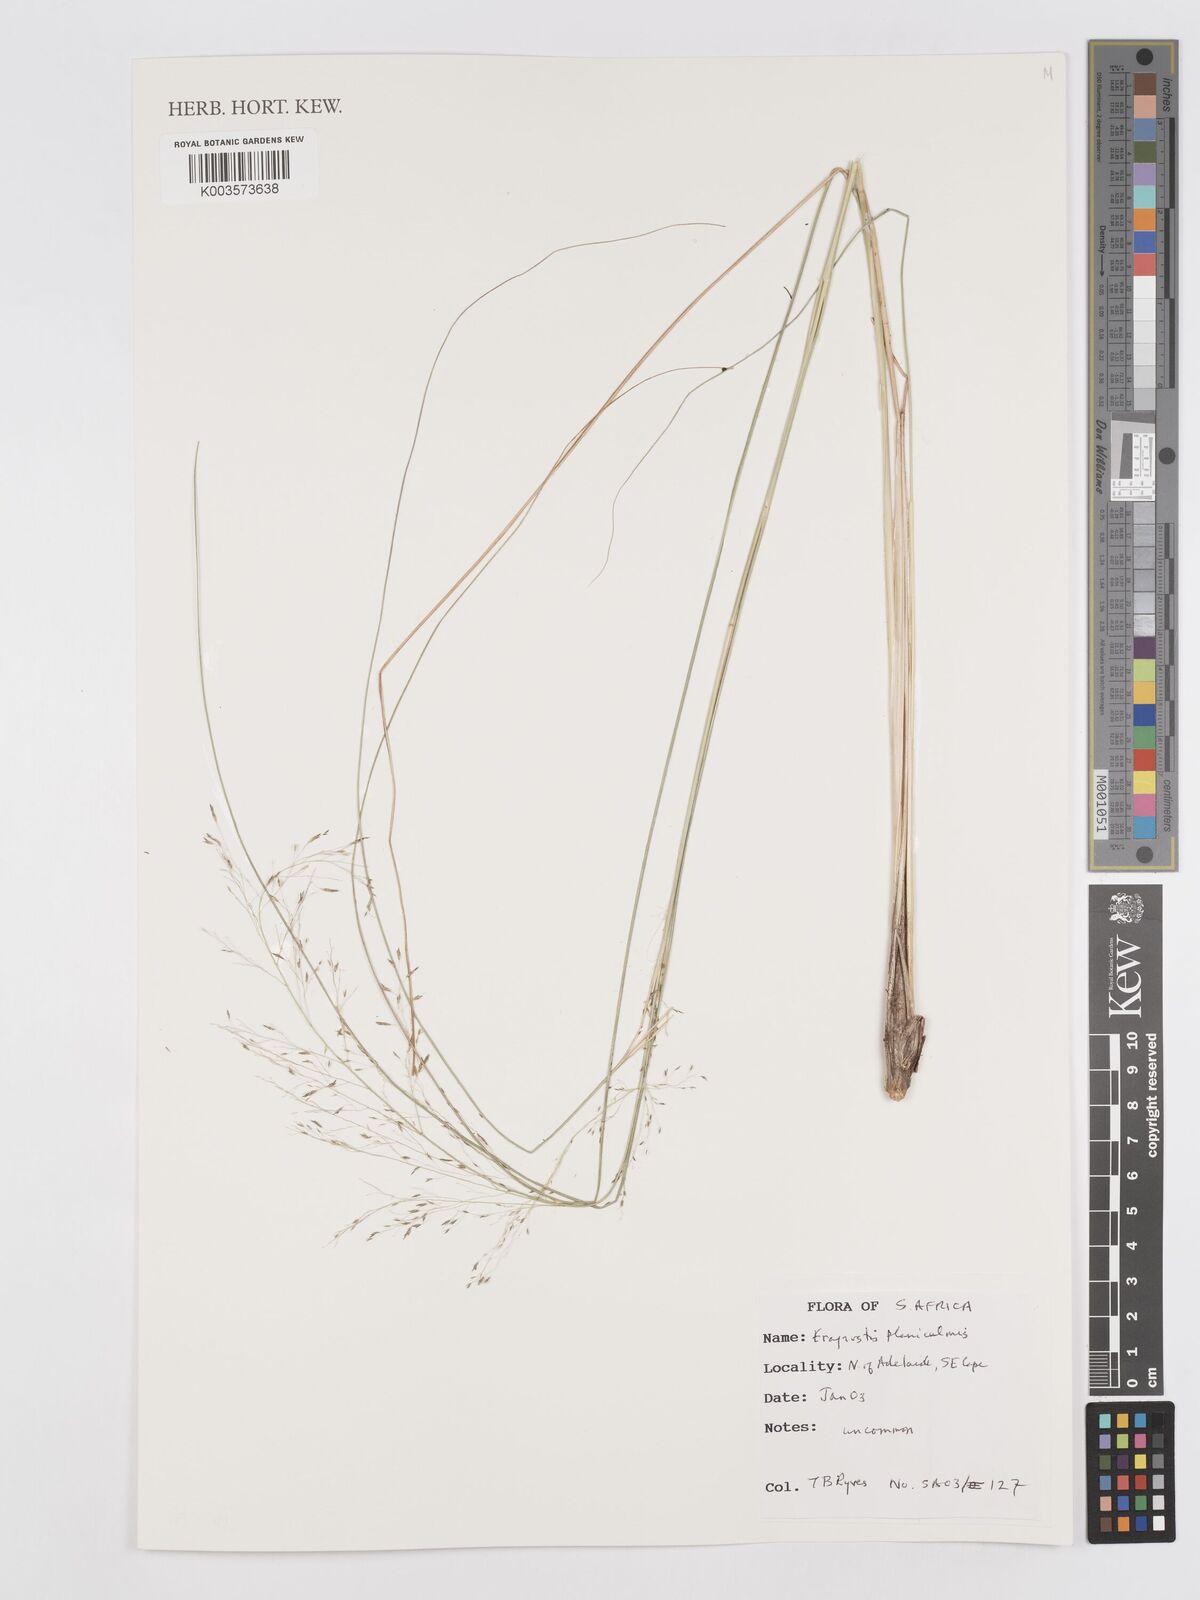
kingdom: Plantae
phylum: Tracheophyta
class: Liliopsida
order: Poales
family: Poaceae
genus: Eragrostis
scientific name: Eragrostis planiculmis
